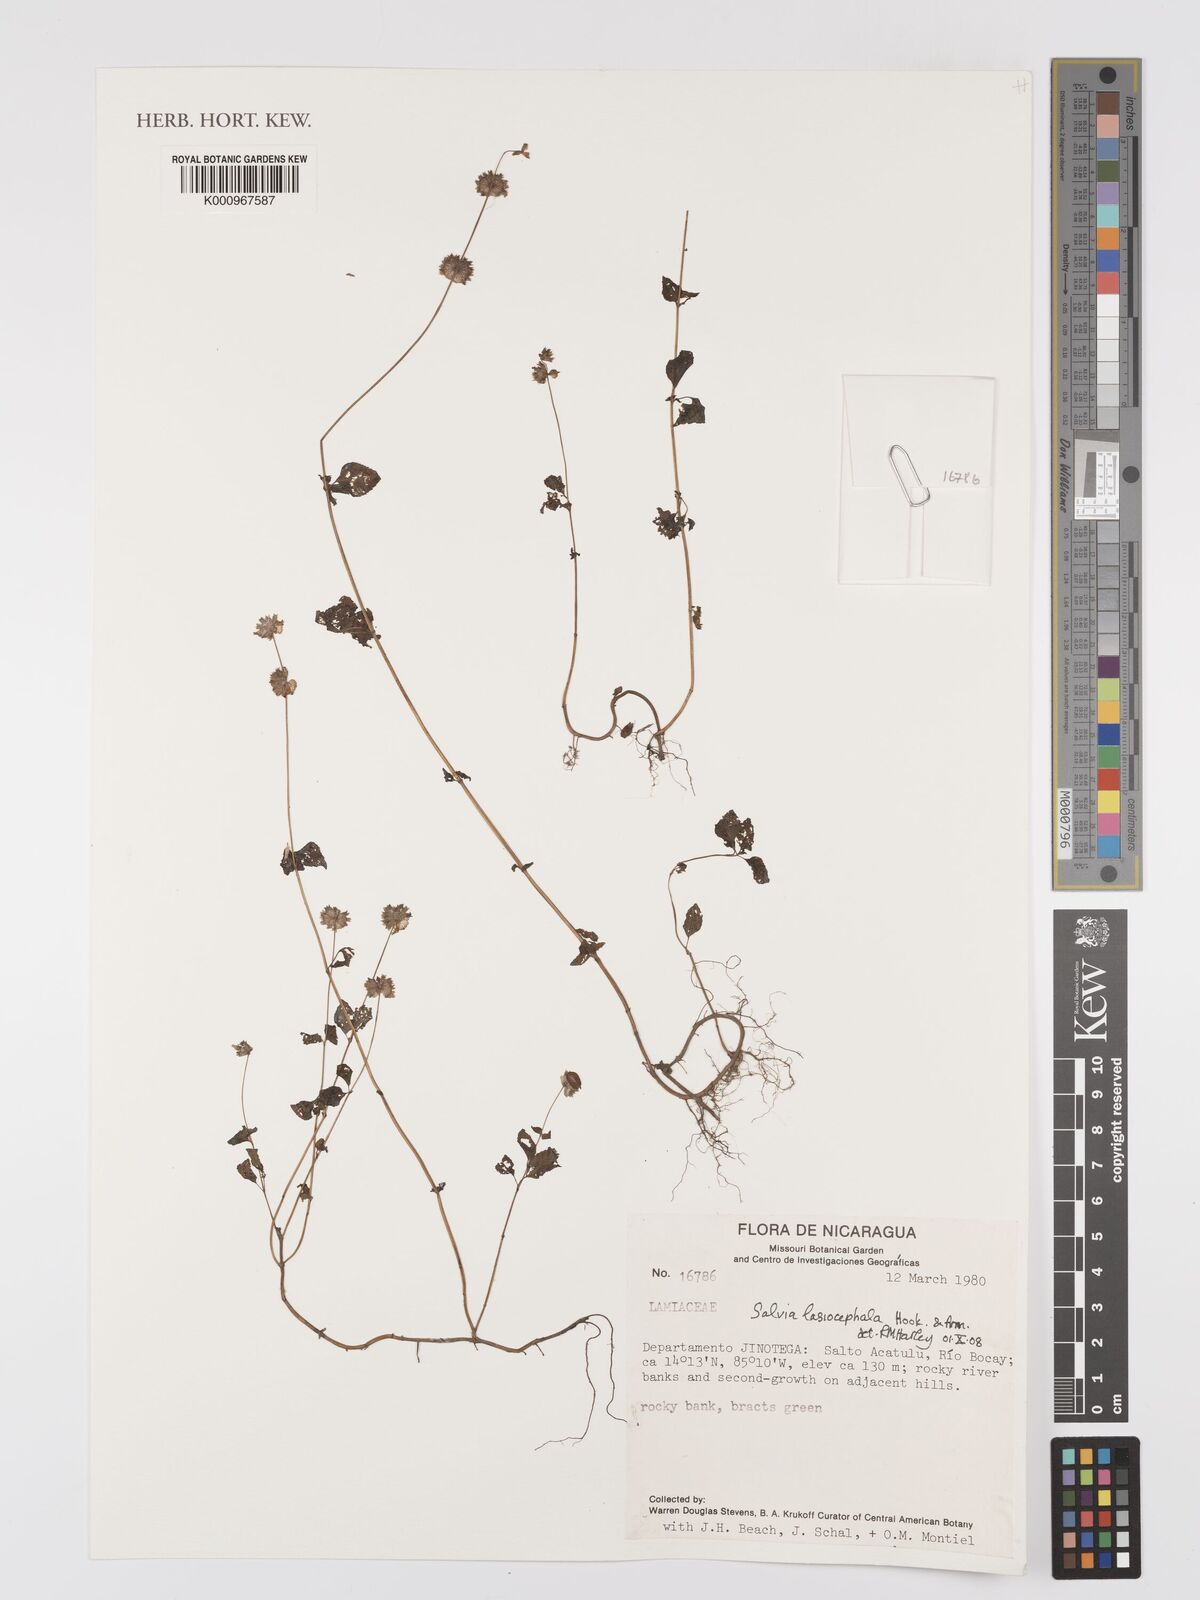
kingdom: Plantae
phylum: Tracheophyta
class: Magnoliopsida
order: Lamiales
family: Lamiaceae
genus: Salvia
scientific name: Salvia lasiocephala
